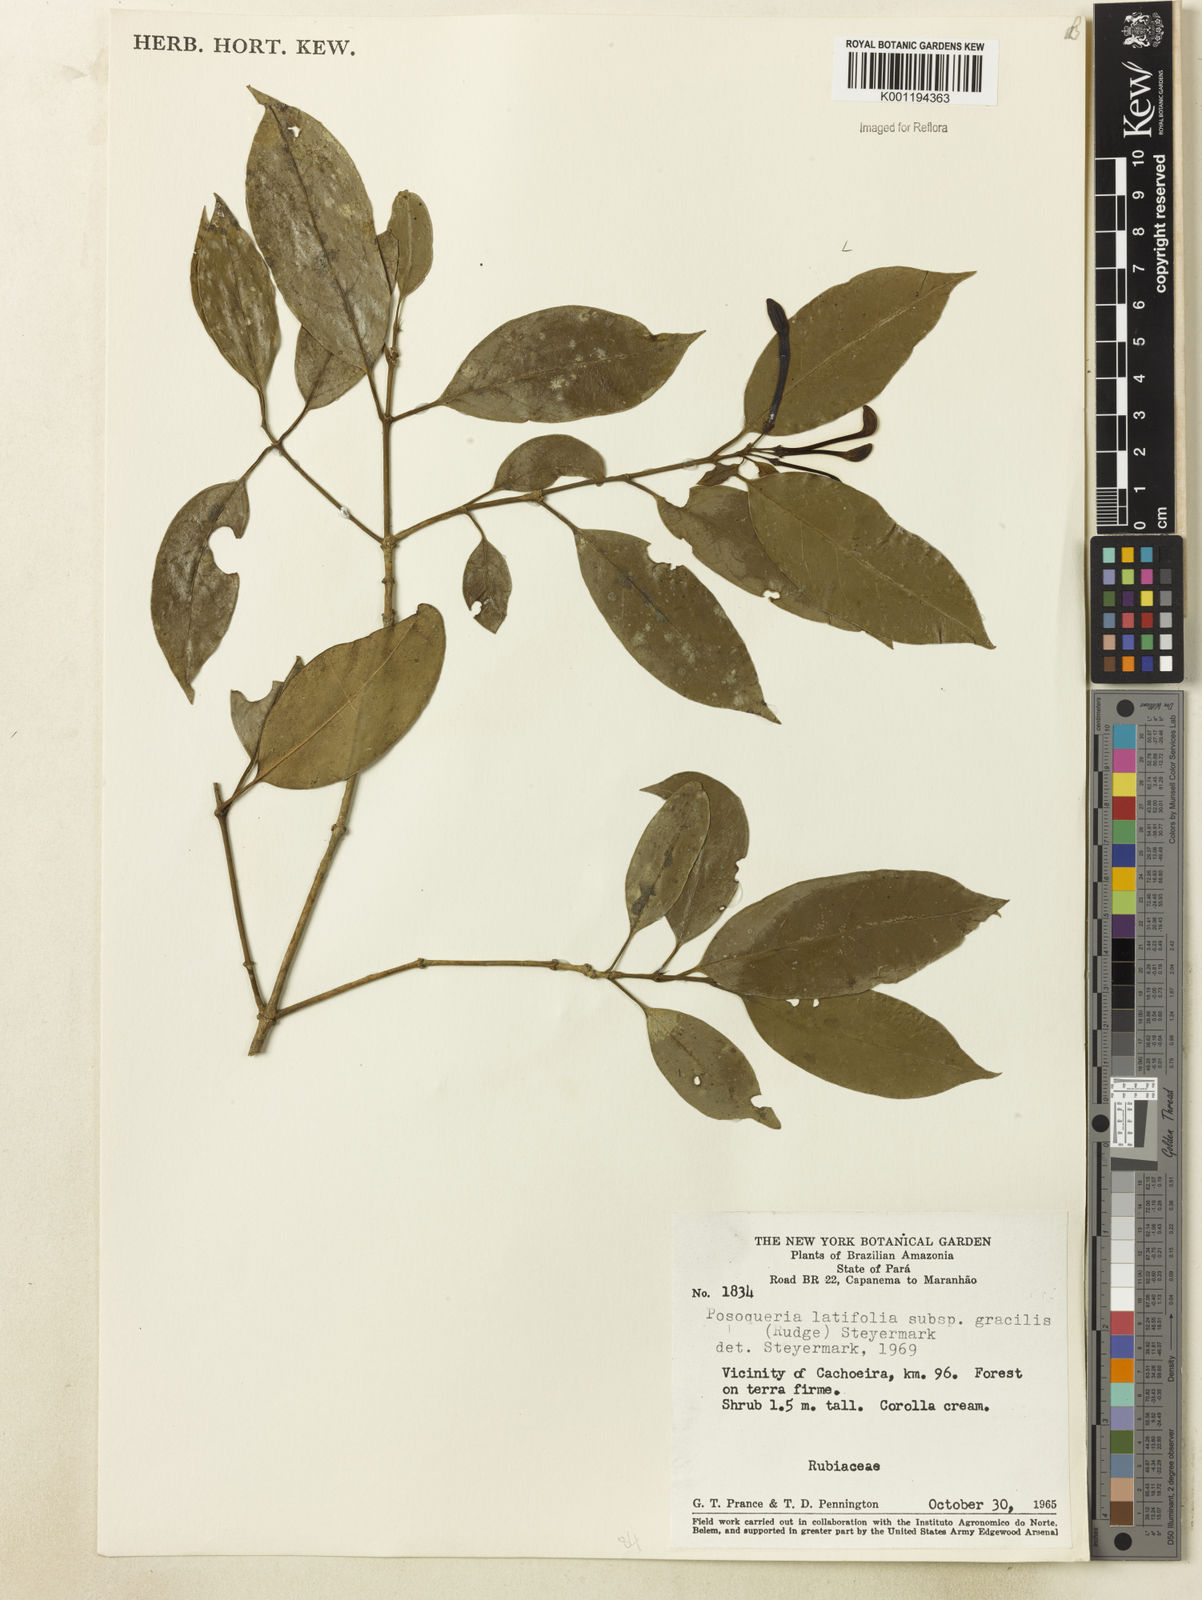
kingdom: Plantae
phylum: Tracheophyta
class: Magnoliopsida
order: Gentianales
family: Rubiaceae
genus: Posoqueria
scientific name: Posoqueria latifolia
